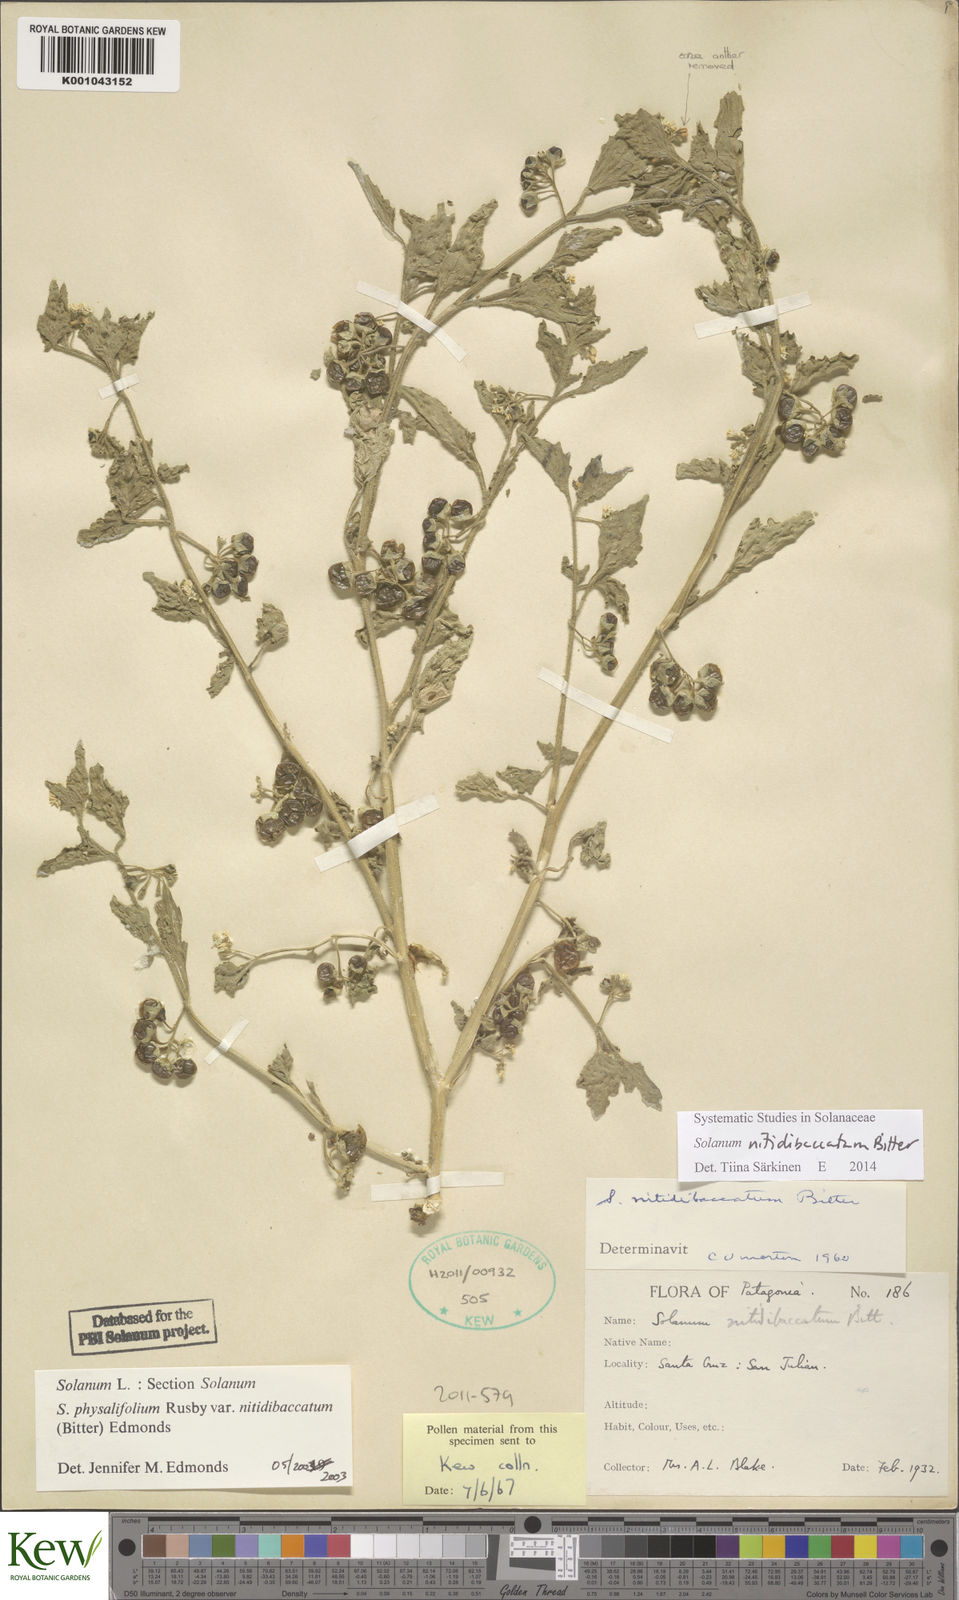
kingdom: Plantae
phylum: Tracheophyta
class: Magnoliopsida
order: Solanales
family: Solanaceae
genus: Solanum
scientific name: Solanum nitidibaccatum
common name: Hairy nightshade
